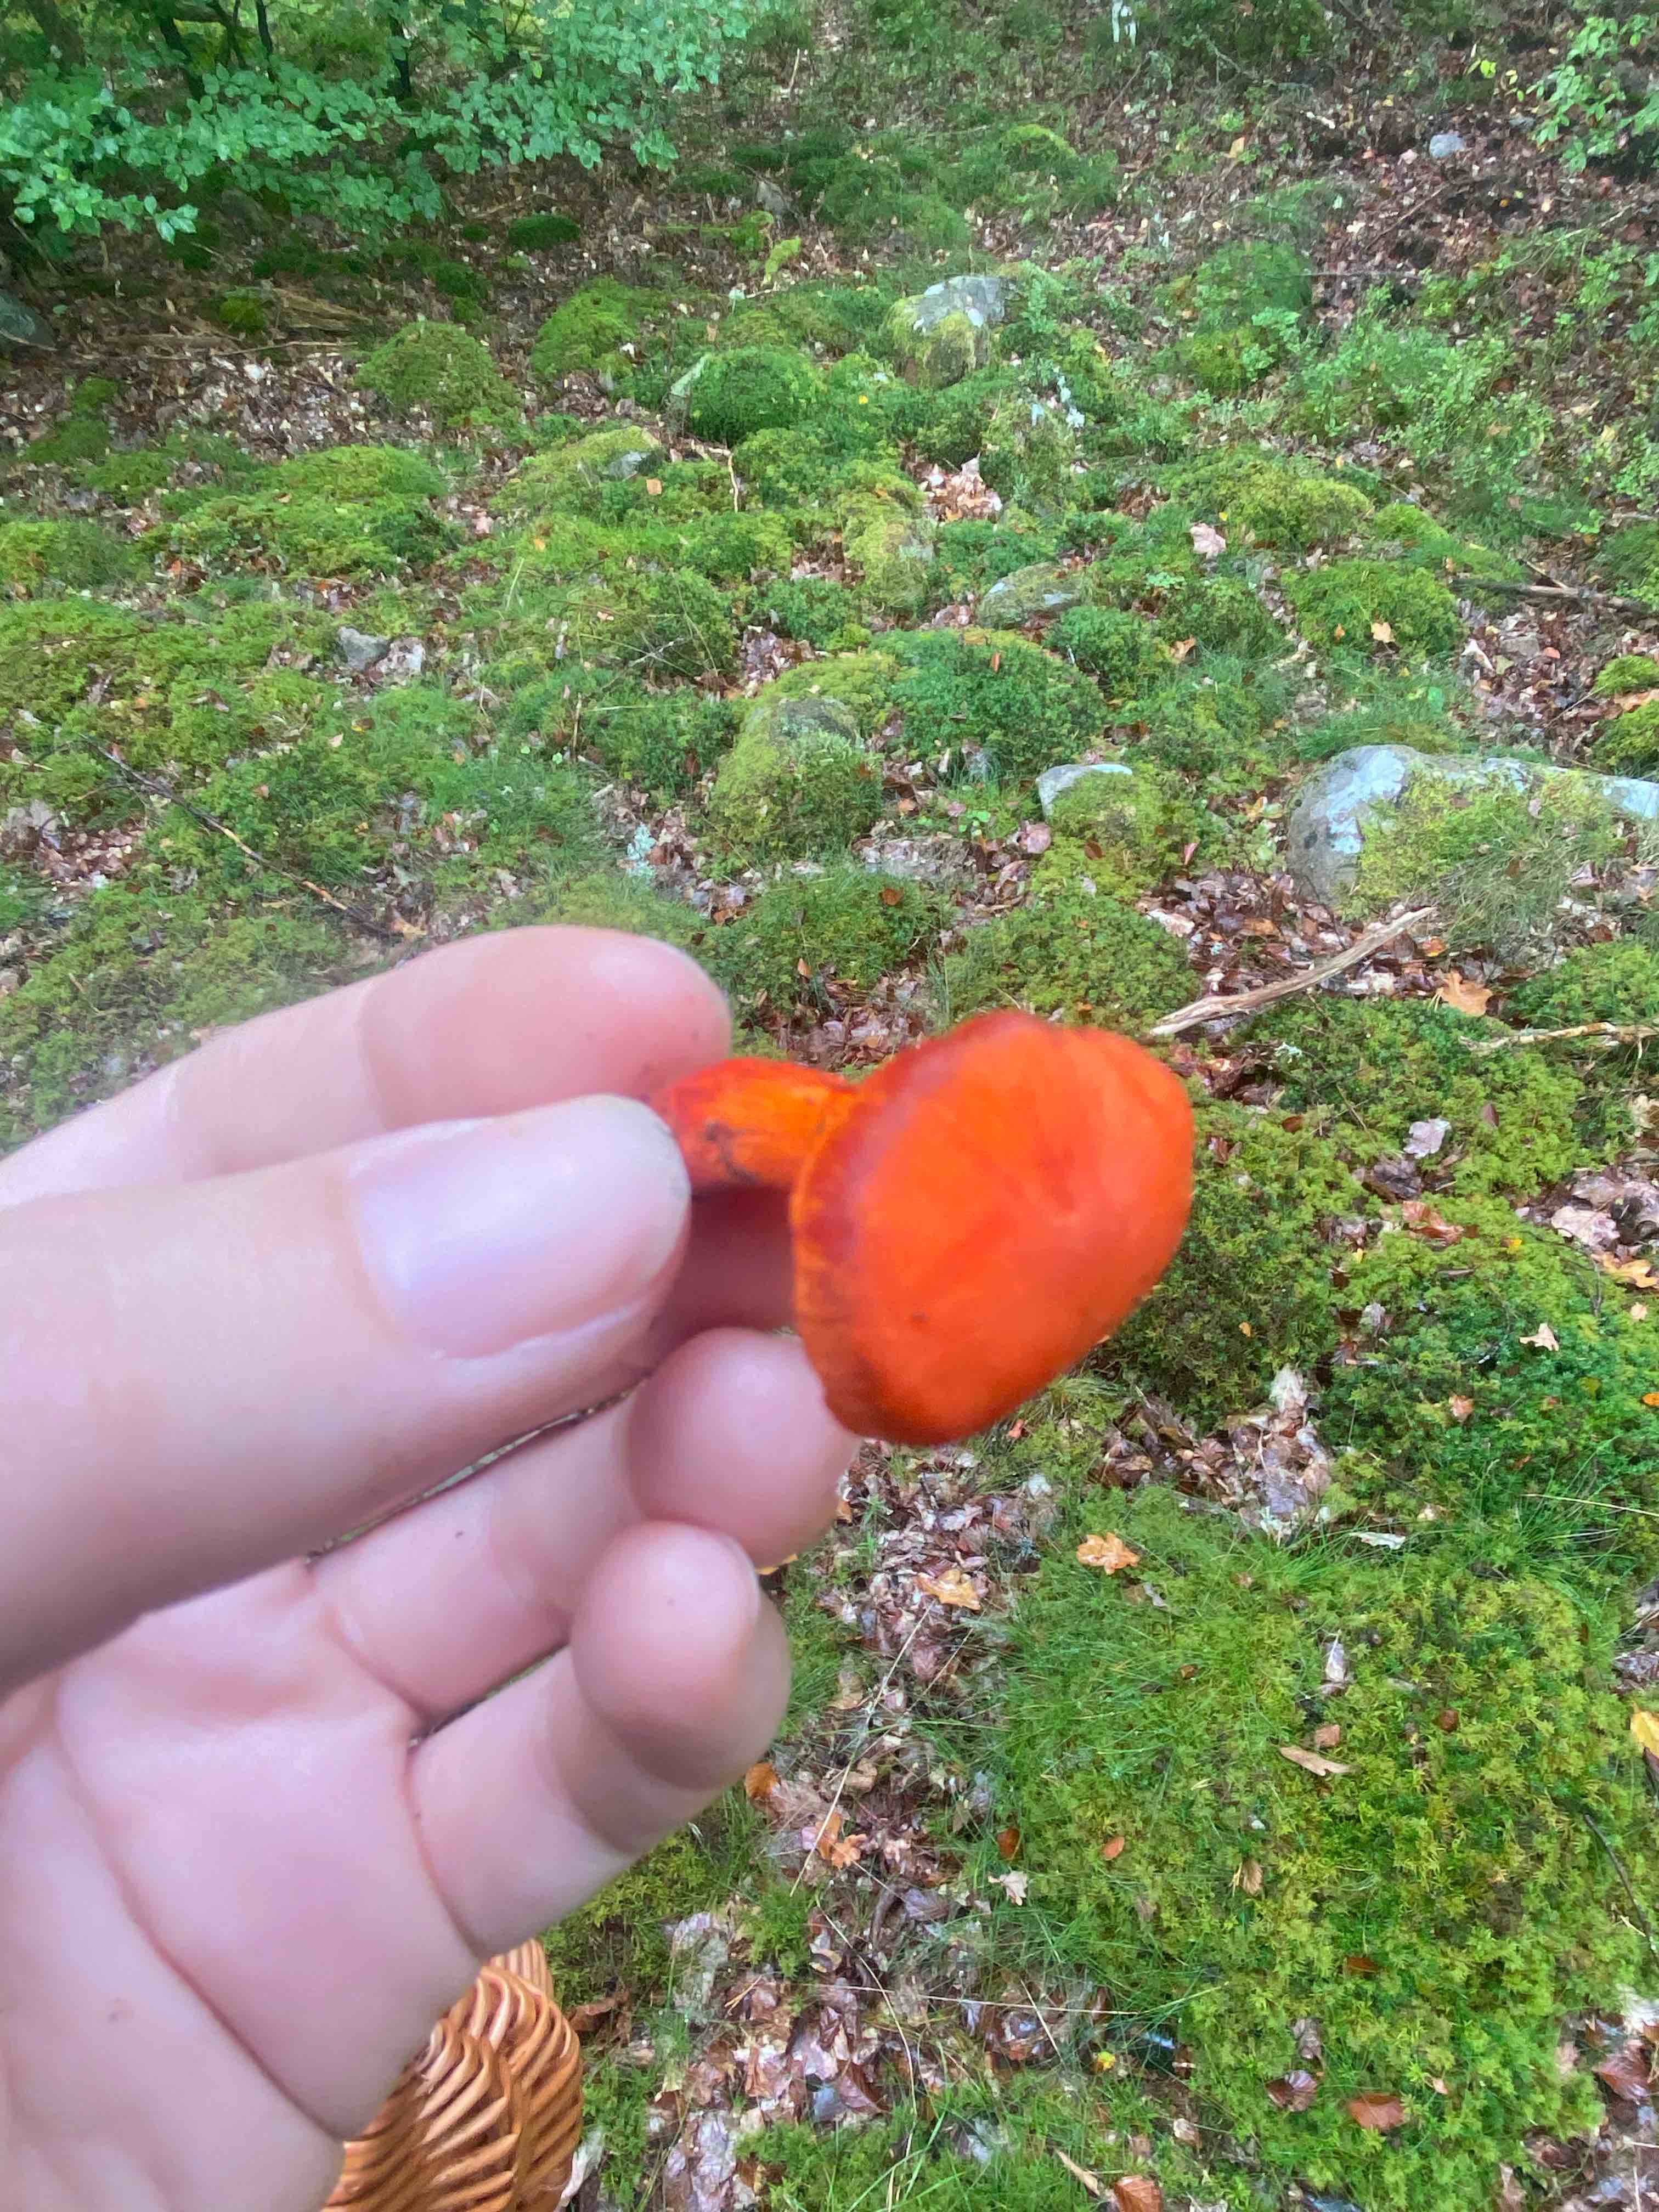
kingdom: Fungi
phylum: Basidiomycota
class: Agaricomycetes
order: Agaricales
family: Cortinariaceae
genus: Cortinarius
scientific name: Cortinarius cinnabarinus
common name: cinnober-slørhat
